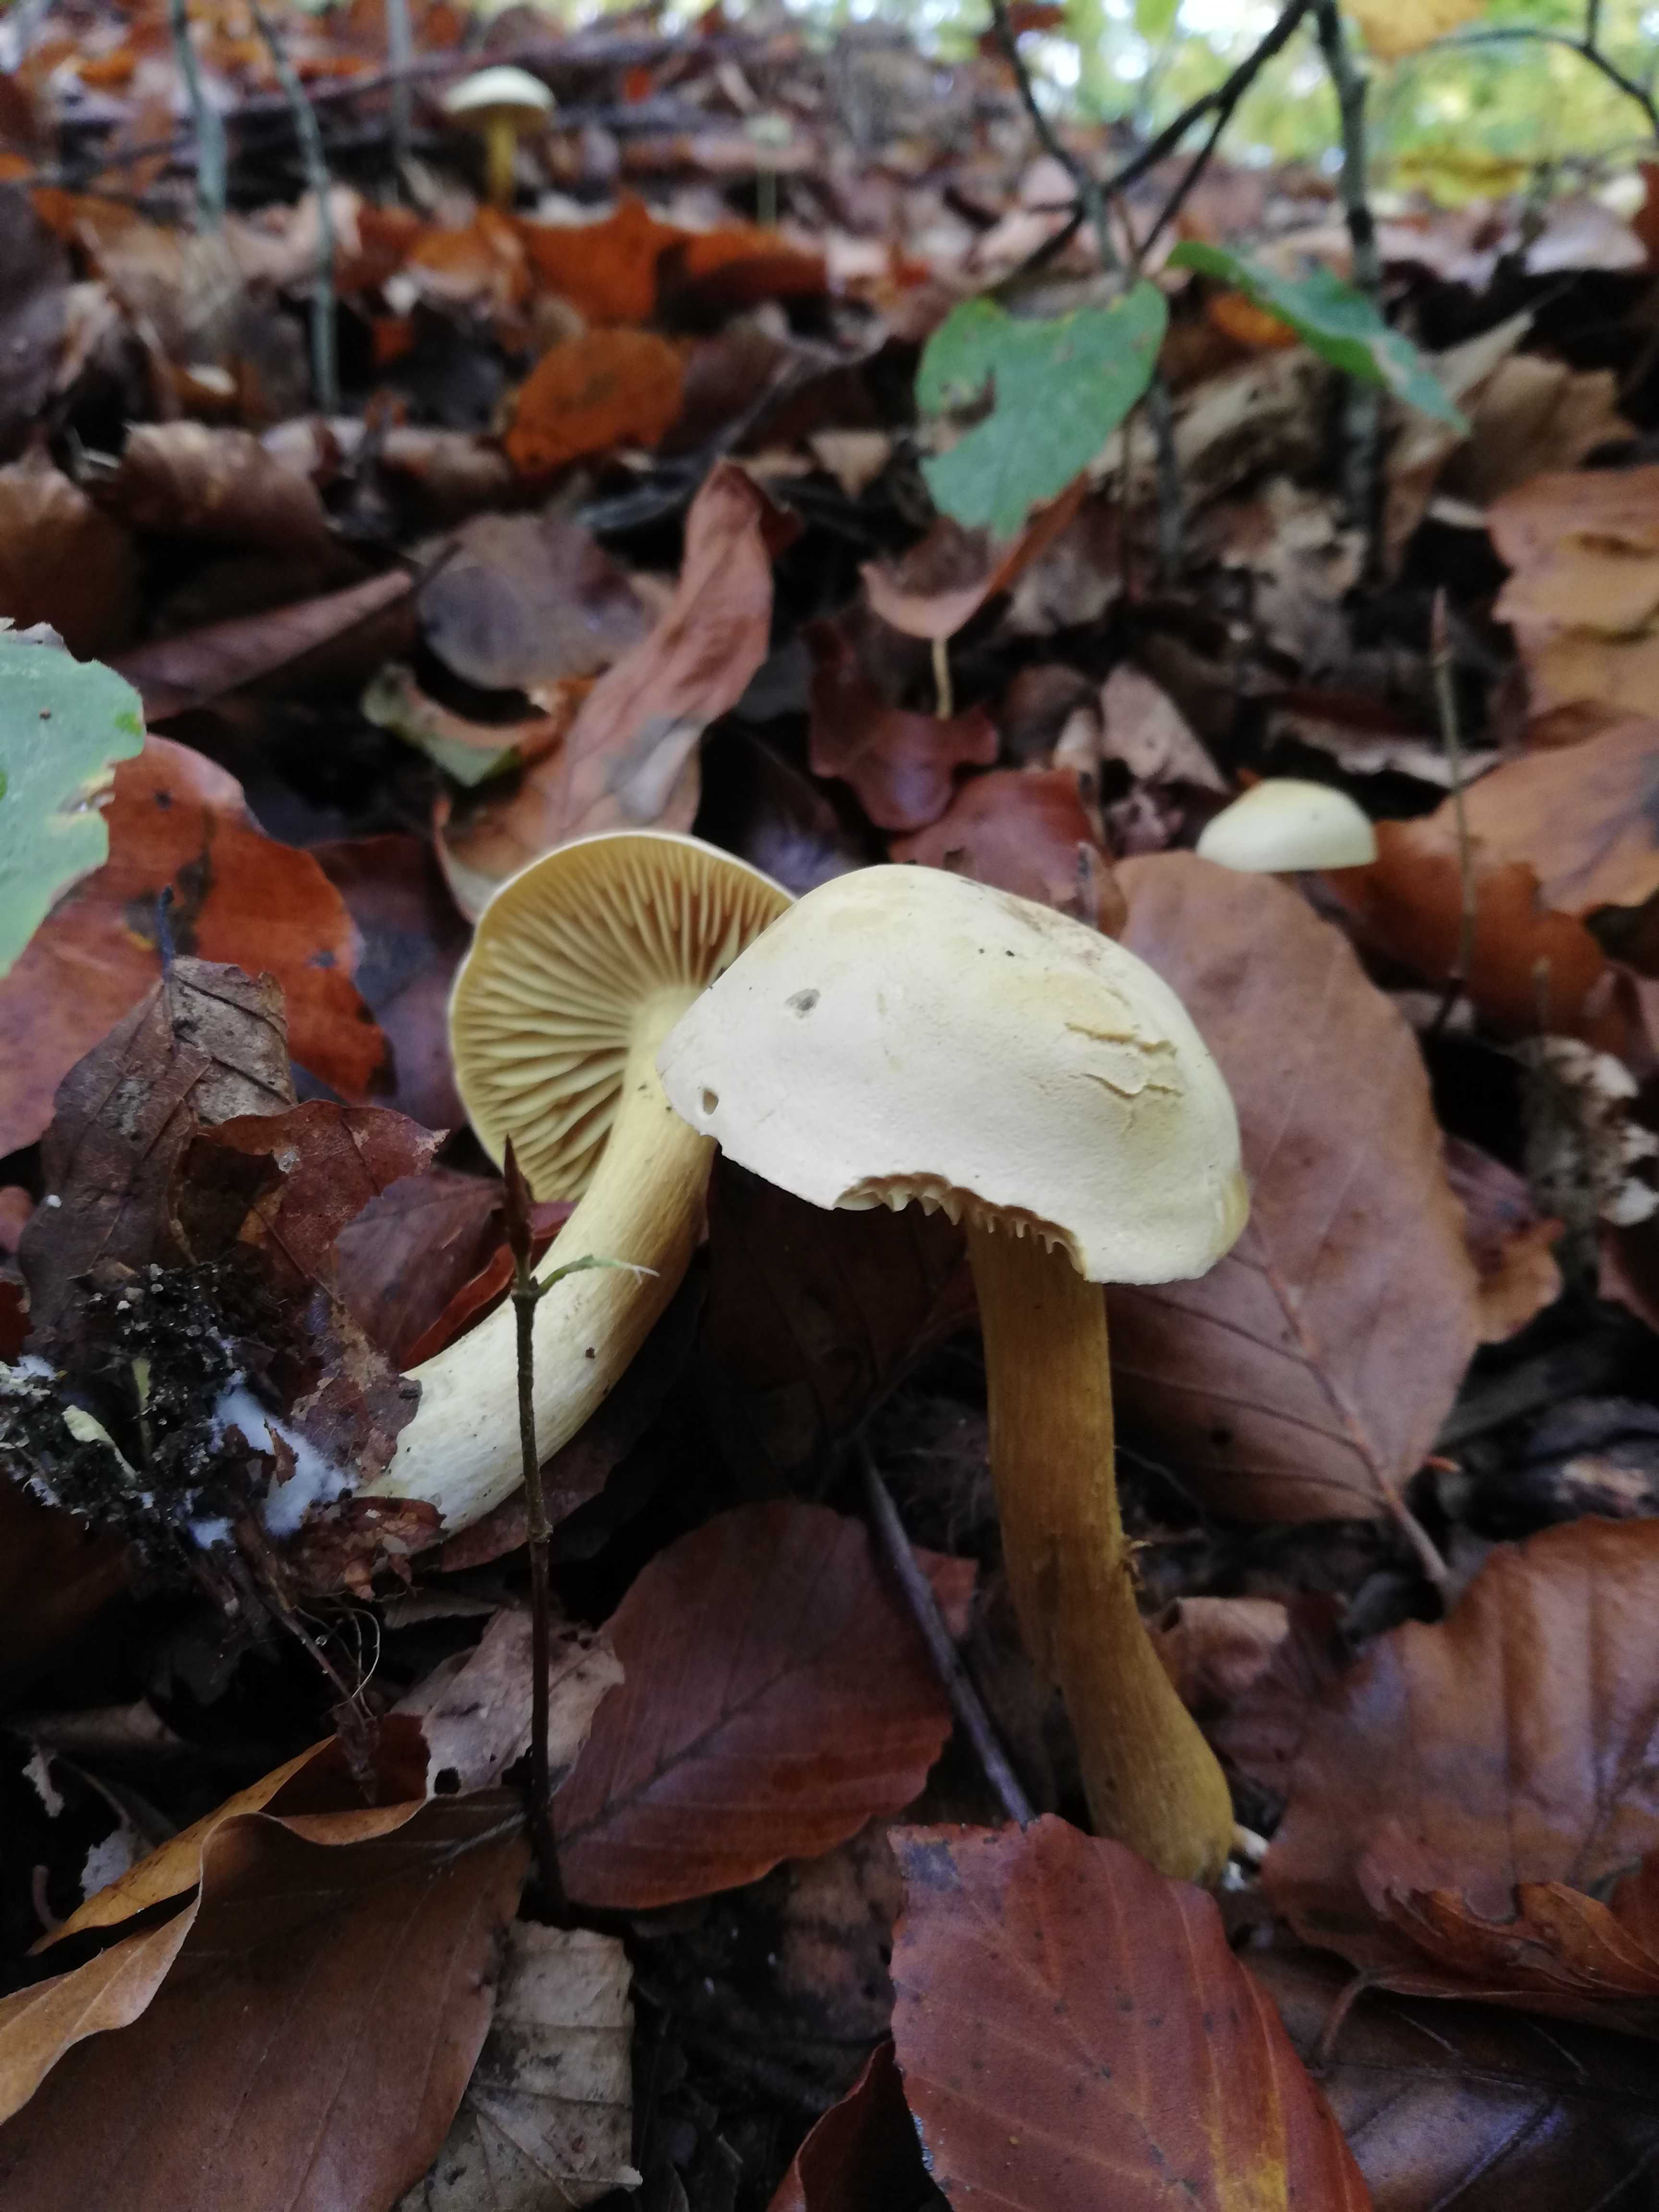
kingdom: Fungi
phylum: Basidiomycota
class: Agaricomycetes
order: Agaricales
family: Tricholomataceae
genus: Tricholoma
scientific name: Tricholoma sulphureum
